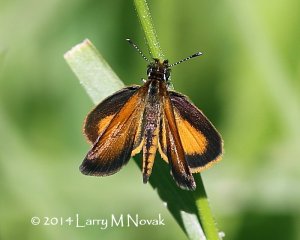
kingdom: Animalia
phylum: Arthropoda
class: Insecta
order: Lepidoptera
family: Hesperiidae
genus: Ancyloxypha
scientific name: Ancyloxypha numitor
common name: Least Skipper
